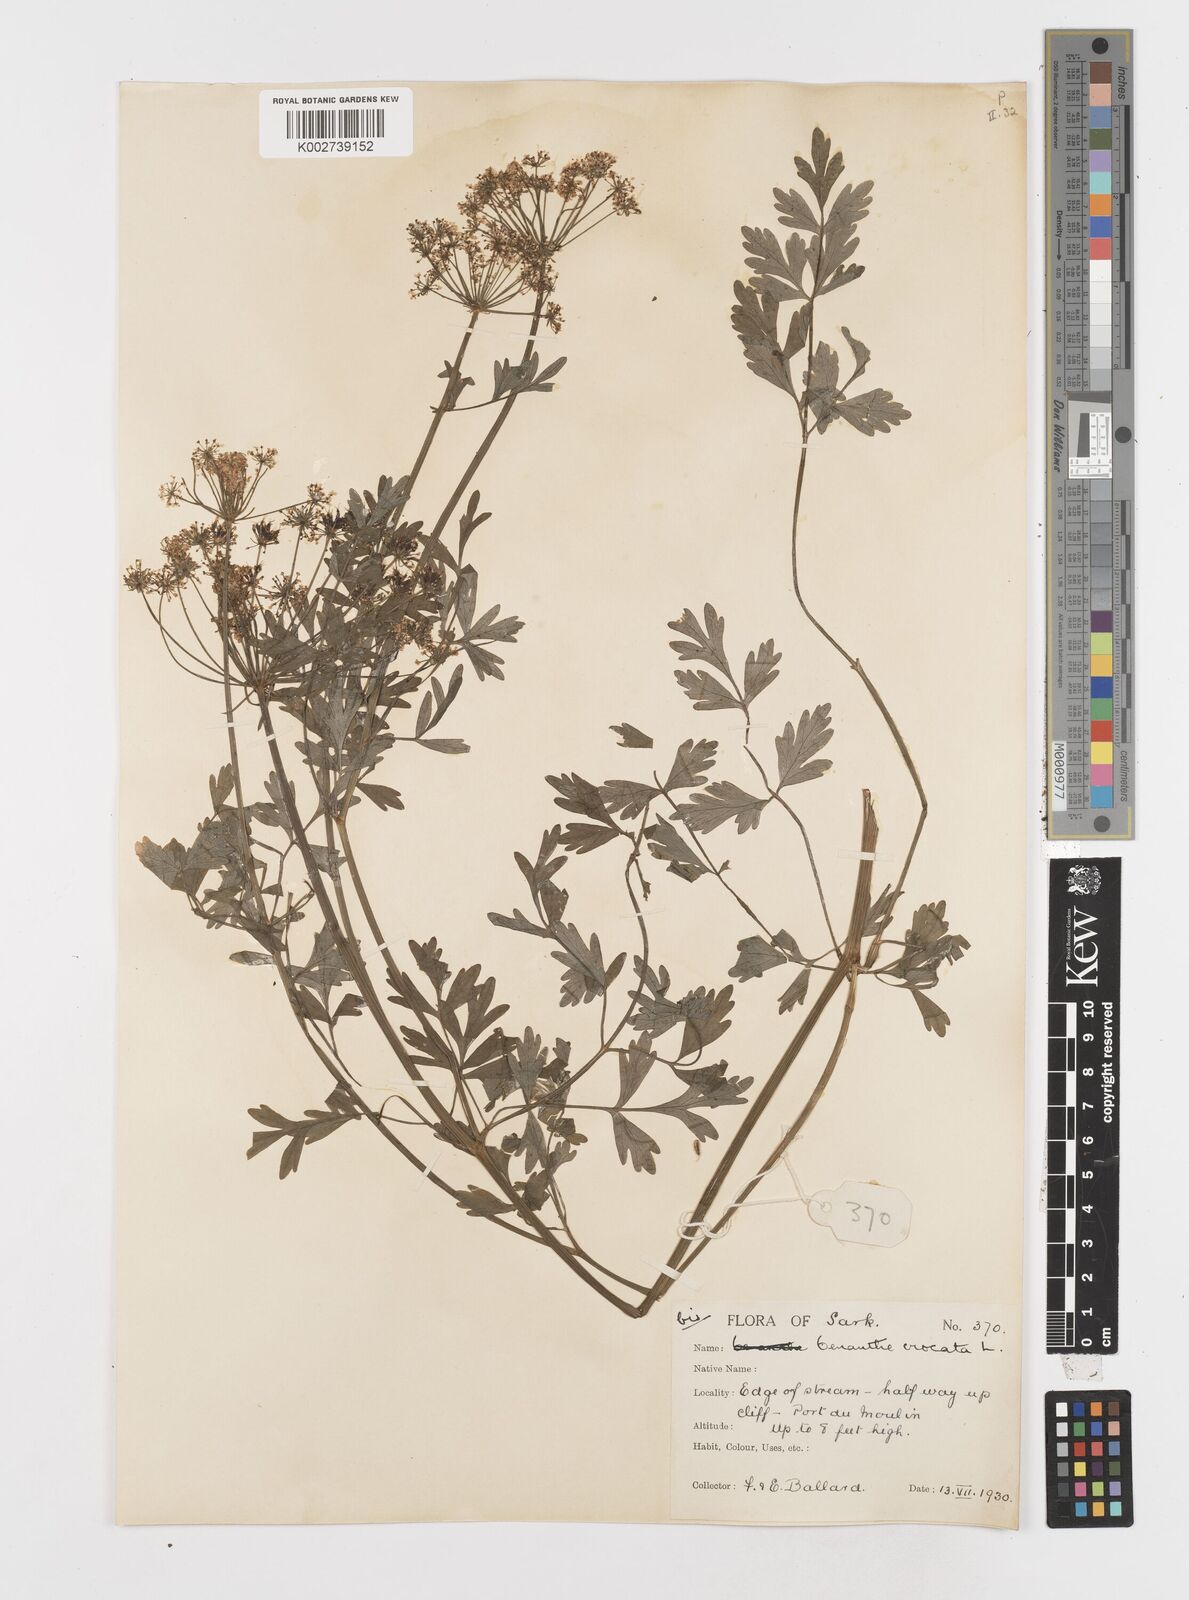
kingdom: Plantae
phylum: Tracheophyta
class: Magnoliopsida
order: Apiales
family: Apiaceae
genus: Oenanthe
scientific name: Oenanthe crocata
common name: Hemlock water-dropwort
